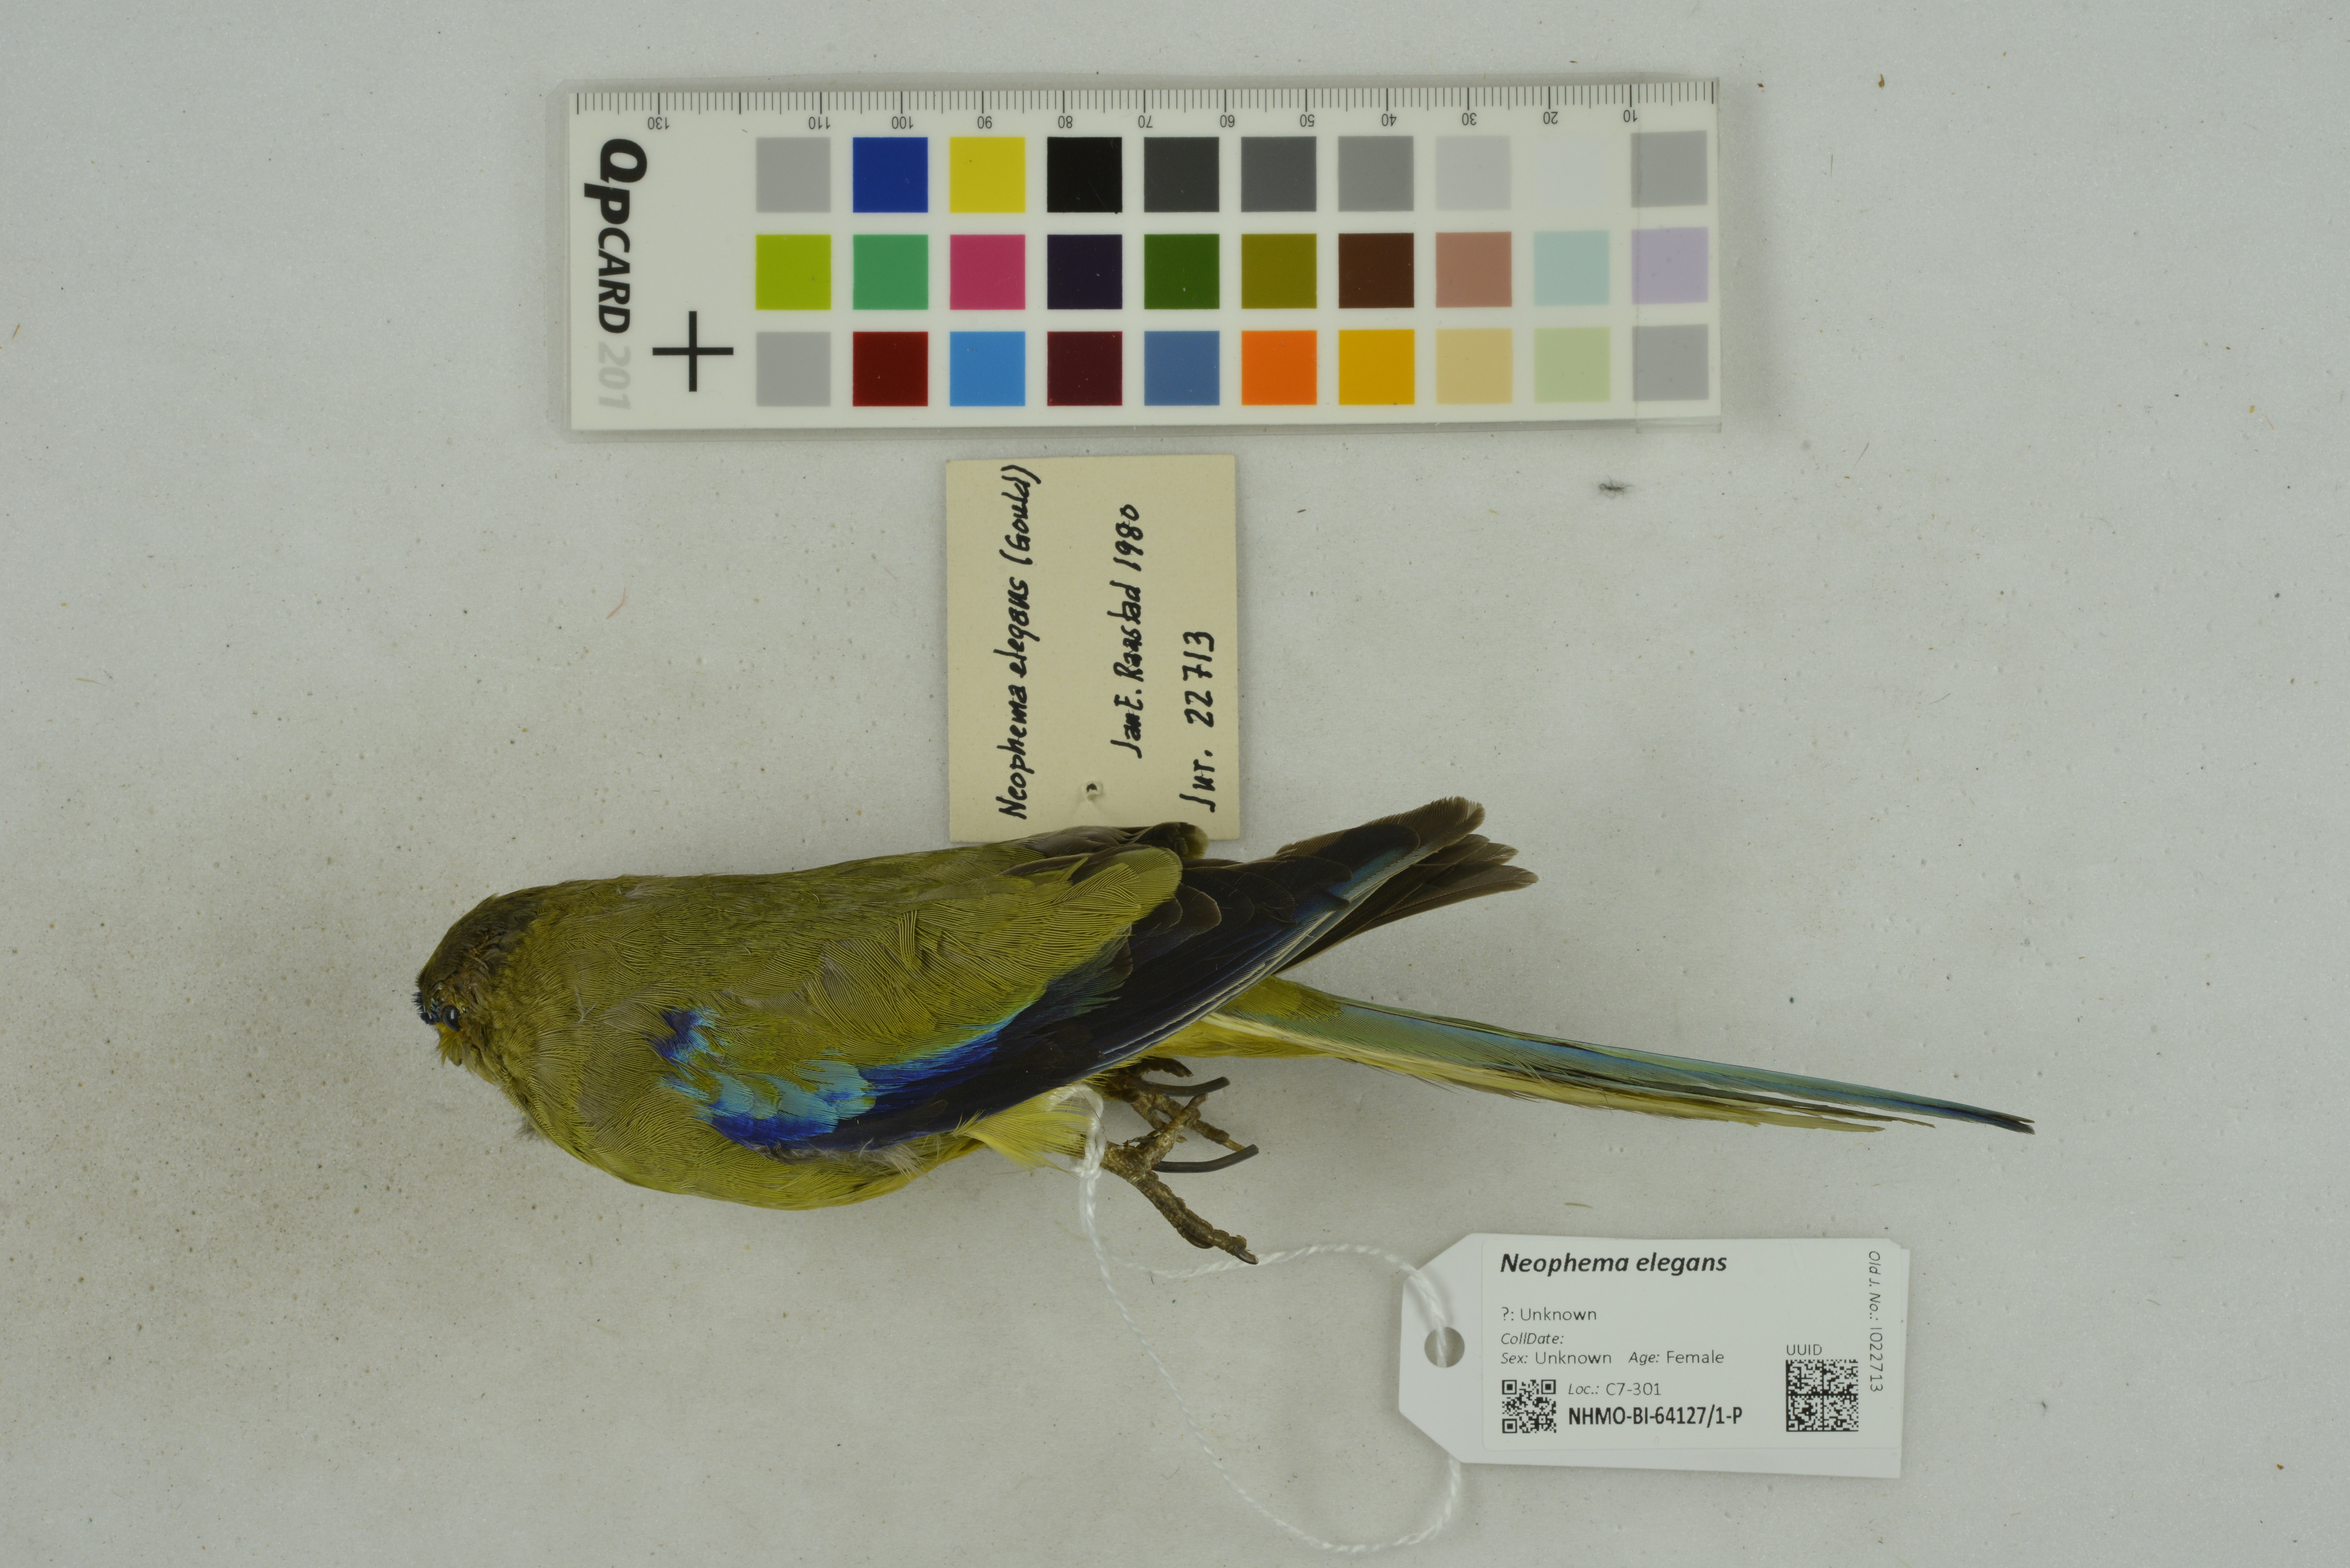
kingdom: Animalia
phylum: Chordata
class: Aves
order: Psittaciformes
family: Psittacidae
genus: Neophema
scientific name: Neophema elegans
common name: Elegant parrot
